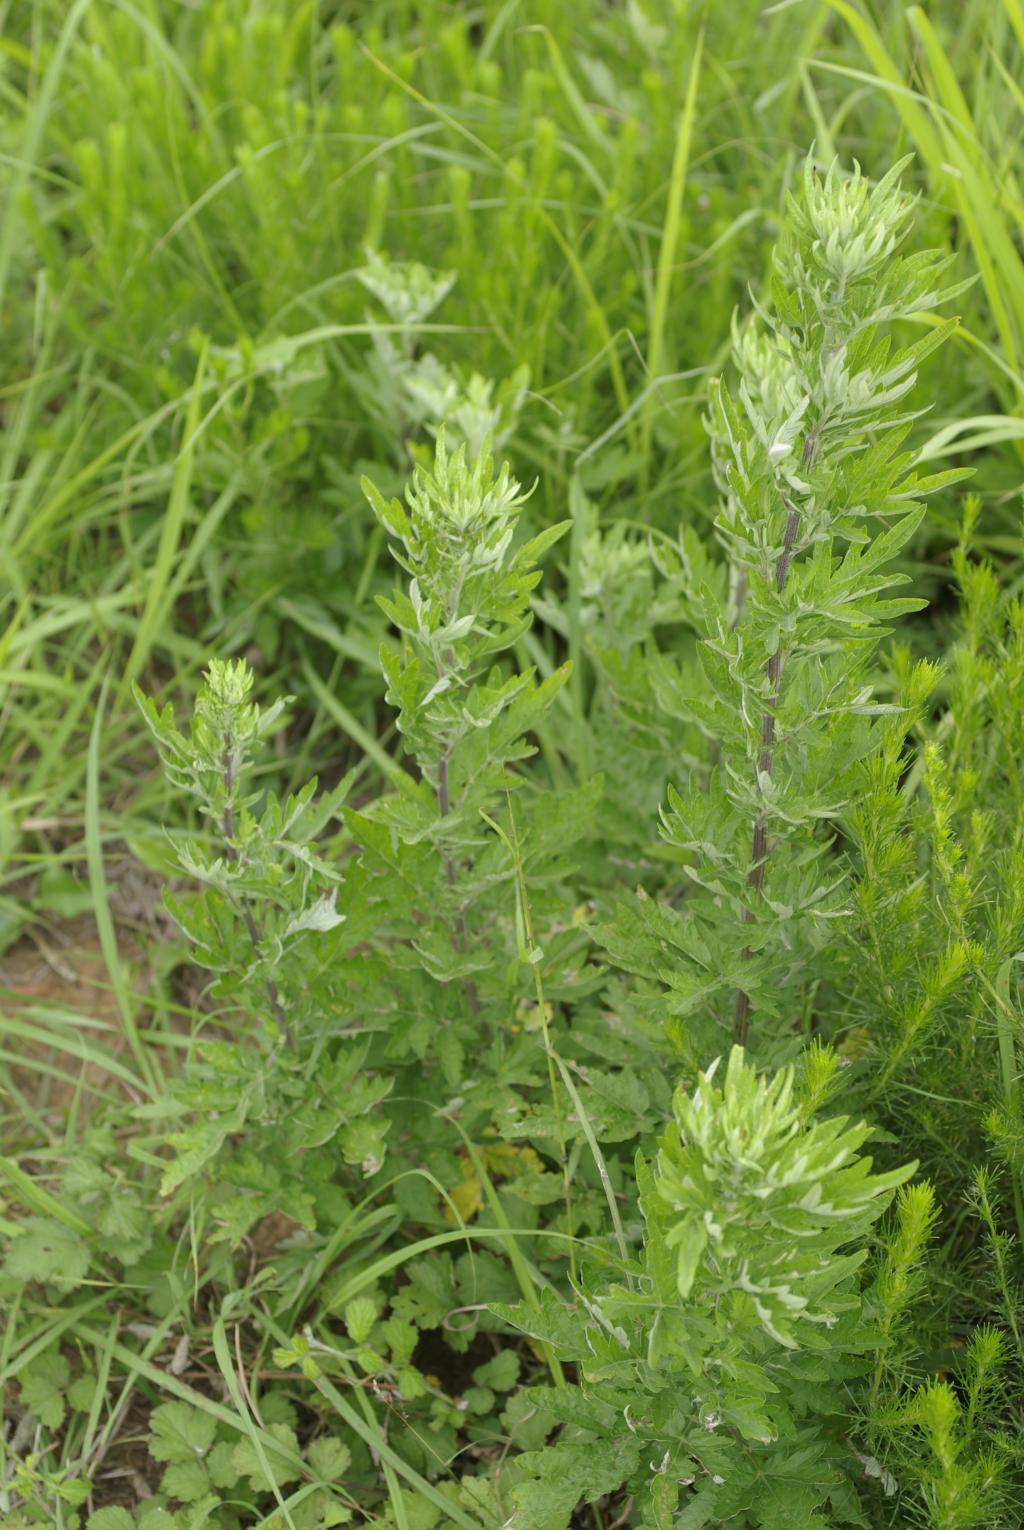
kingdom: Plantae
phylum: Tracheophyta
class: Magnoliopsida
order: Asterales
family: Asteraceae
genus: Artemisia
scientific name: Artemisia indica
